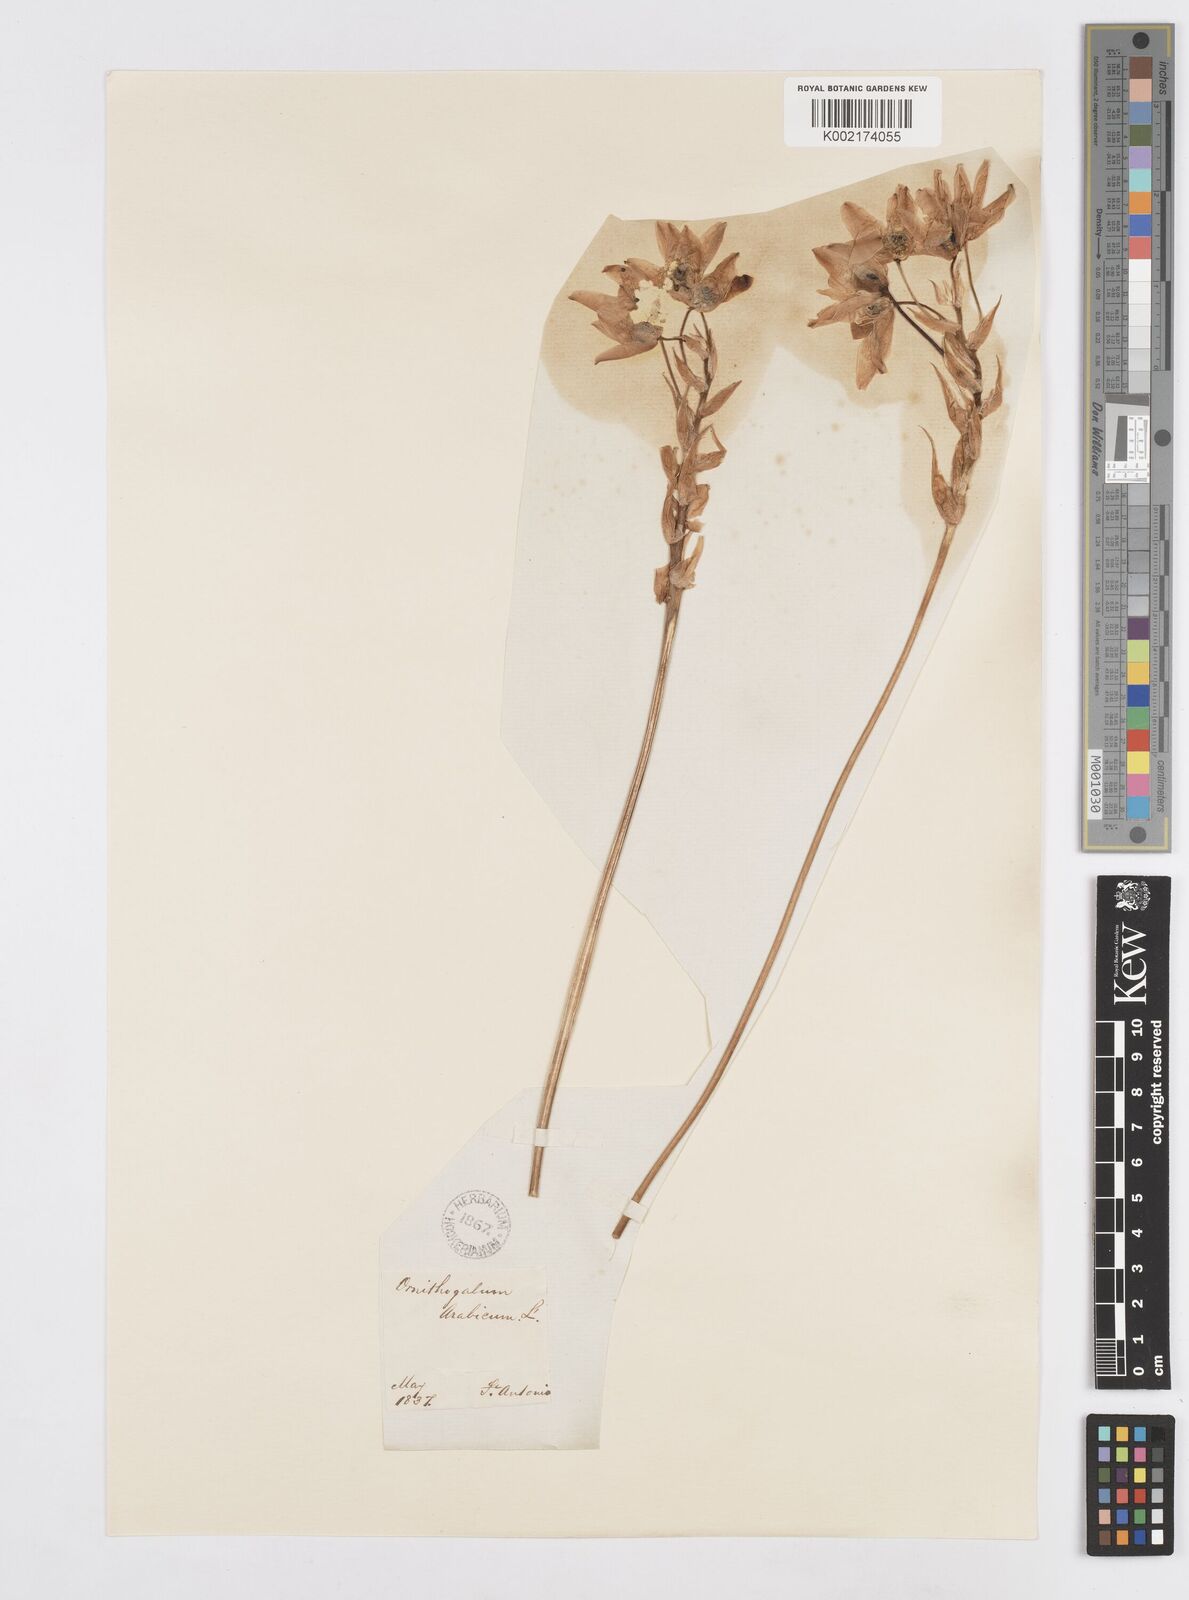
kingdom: Plantae
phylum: Tracheophyta
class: Liliopsida
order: Asparagales
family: Asparagaceae
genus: Ornithogalum
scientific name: Ornithogalum arabicum
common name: Arabian starflower
